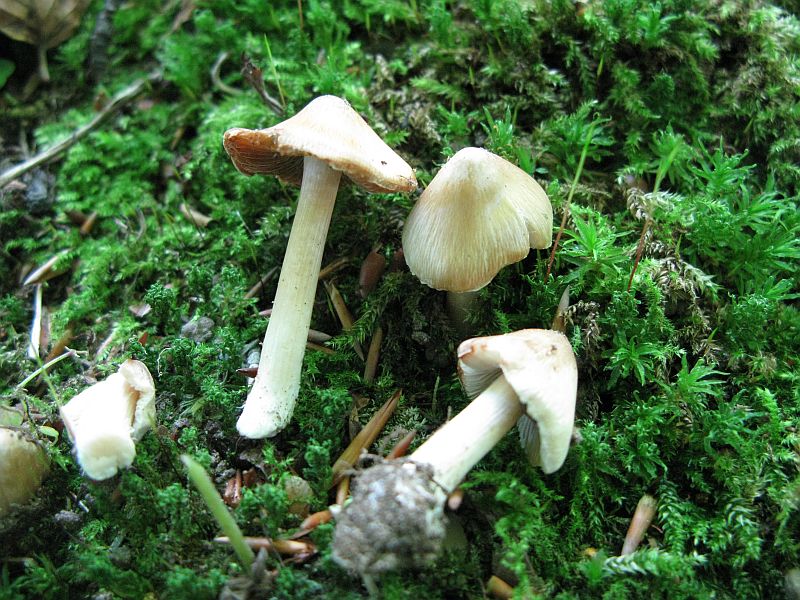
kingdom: Fungi
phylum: Basidiomycota
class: Agaricomycetes
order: Agaricales
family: Inocybaceae
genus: Inosperma
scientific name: Inosperma
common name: strågul trævlhat
